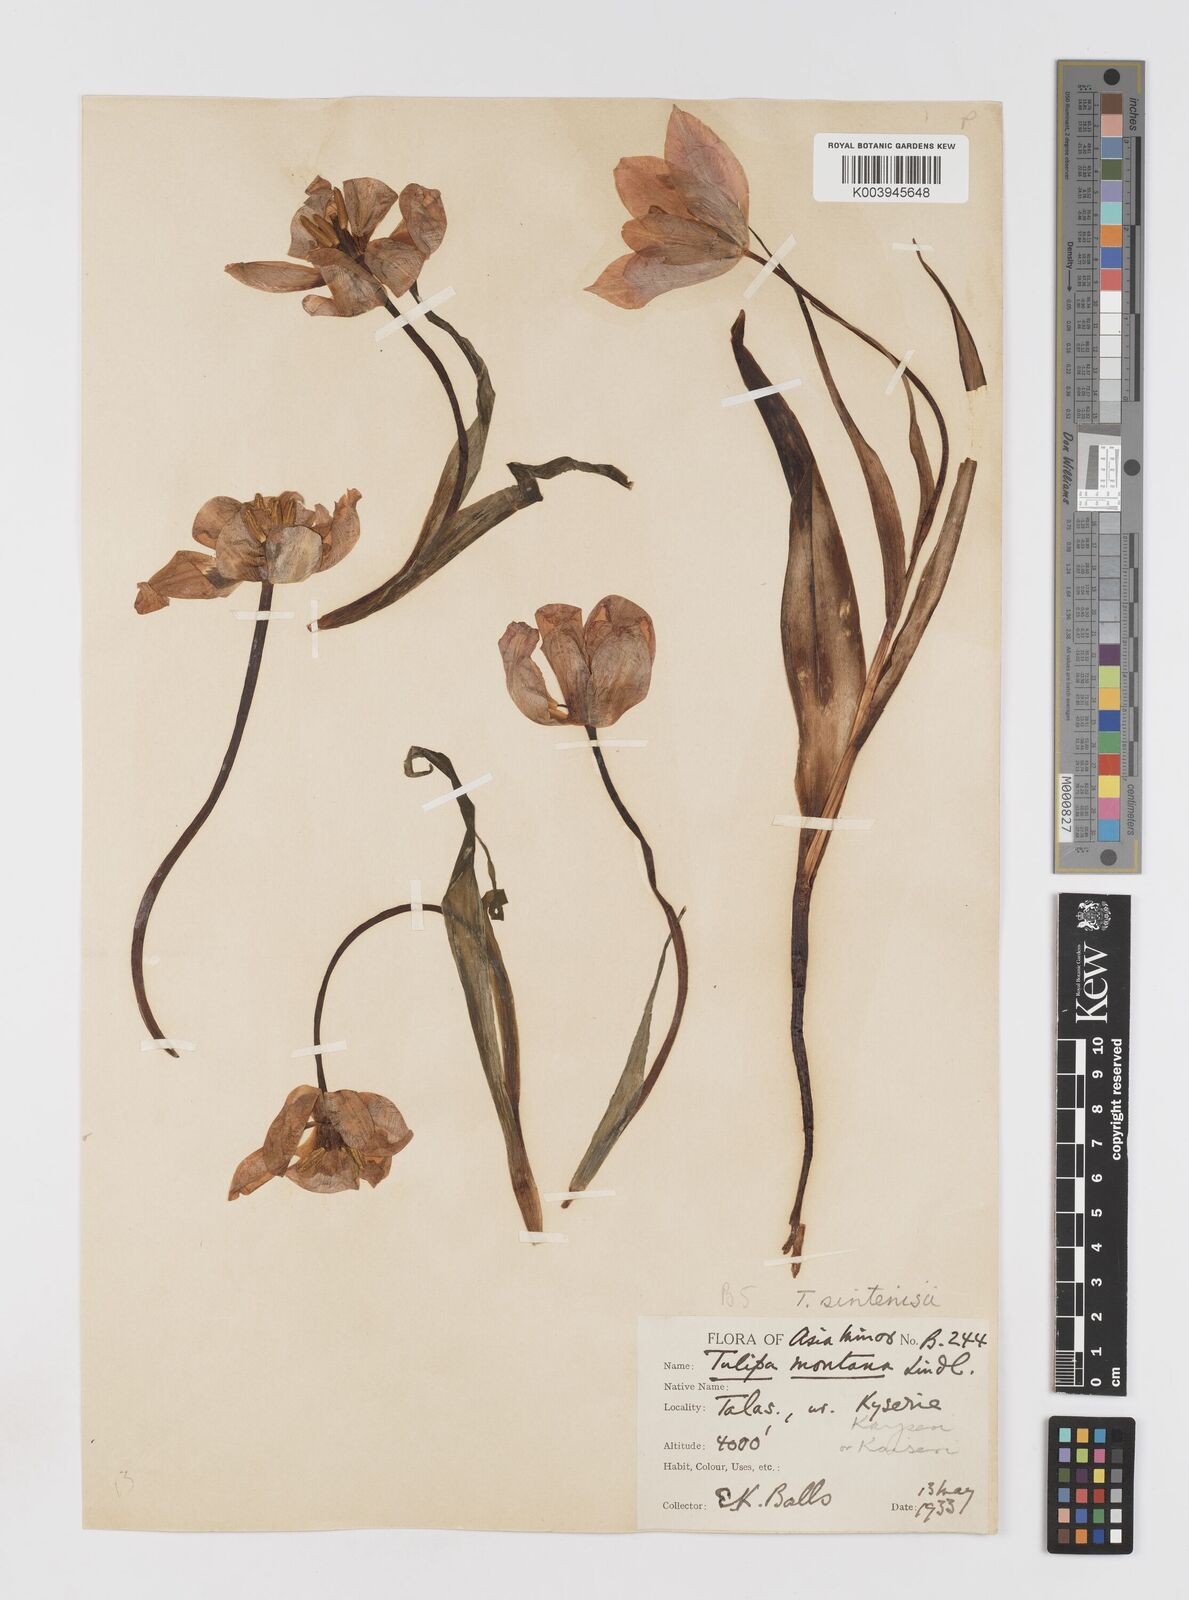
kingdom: Plantae
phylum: Tracheophyta
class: Liliopsida
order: Liliales
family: Liliaceae
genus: Tulipa
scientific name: Tulipa aleppensis
